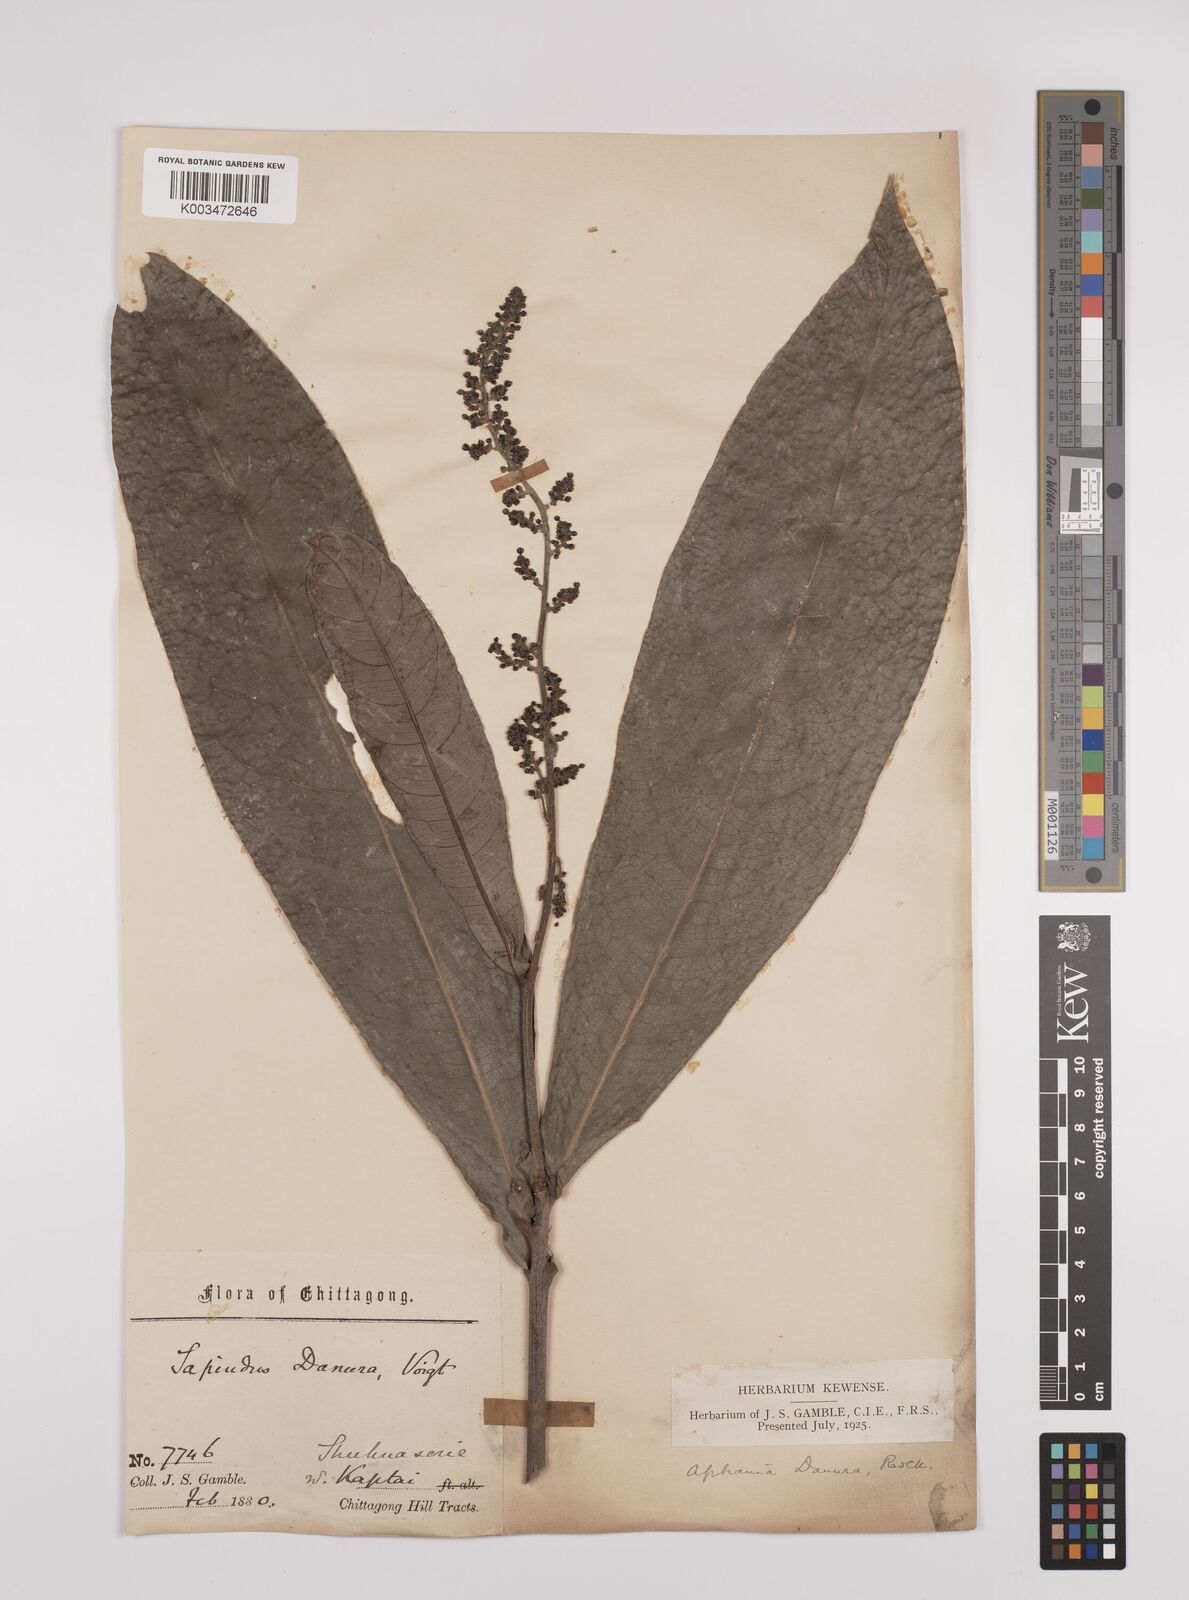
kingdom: Plantae
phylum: Tracheophyta
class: Magnoliopsida
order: Sapindales
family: Sapindaceae
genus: Lepisanthes
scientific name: Lepisanthes senegalensis
